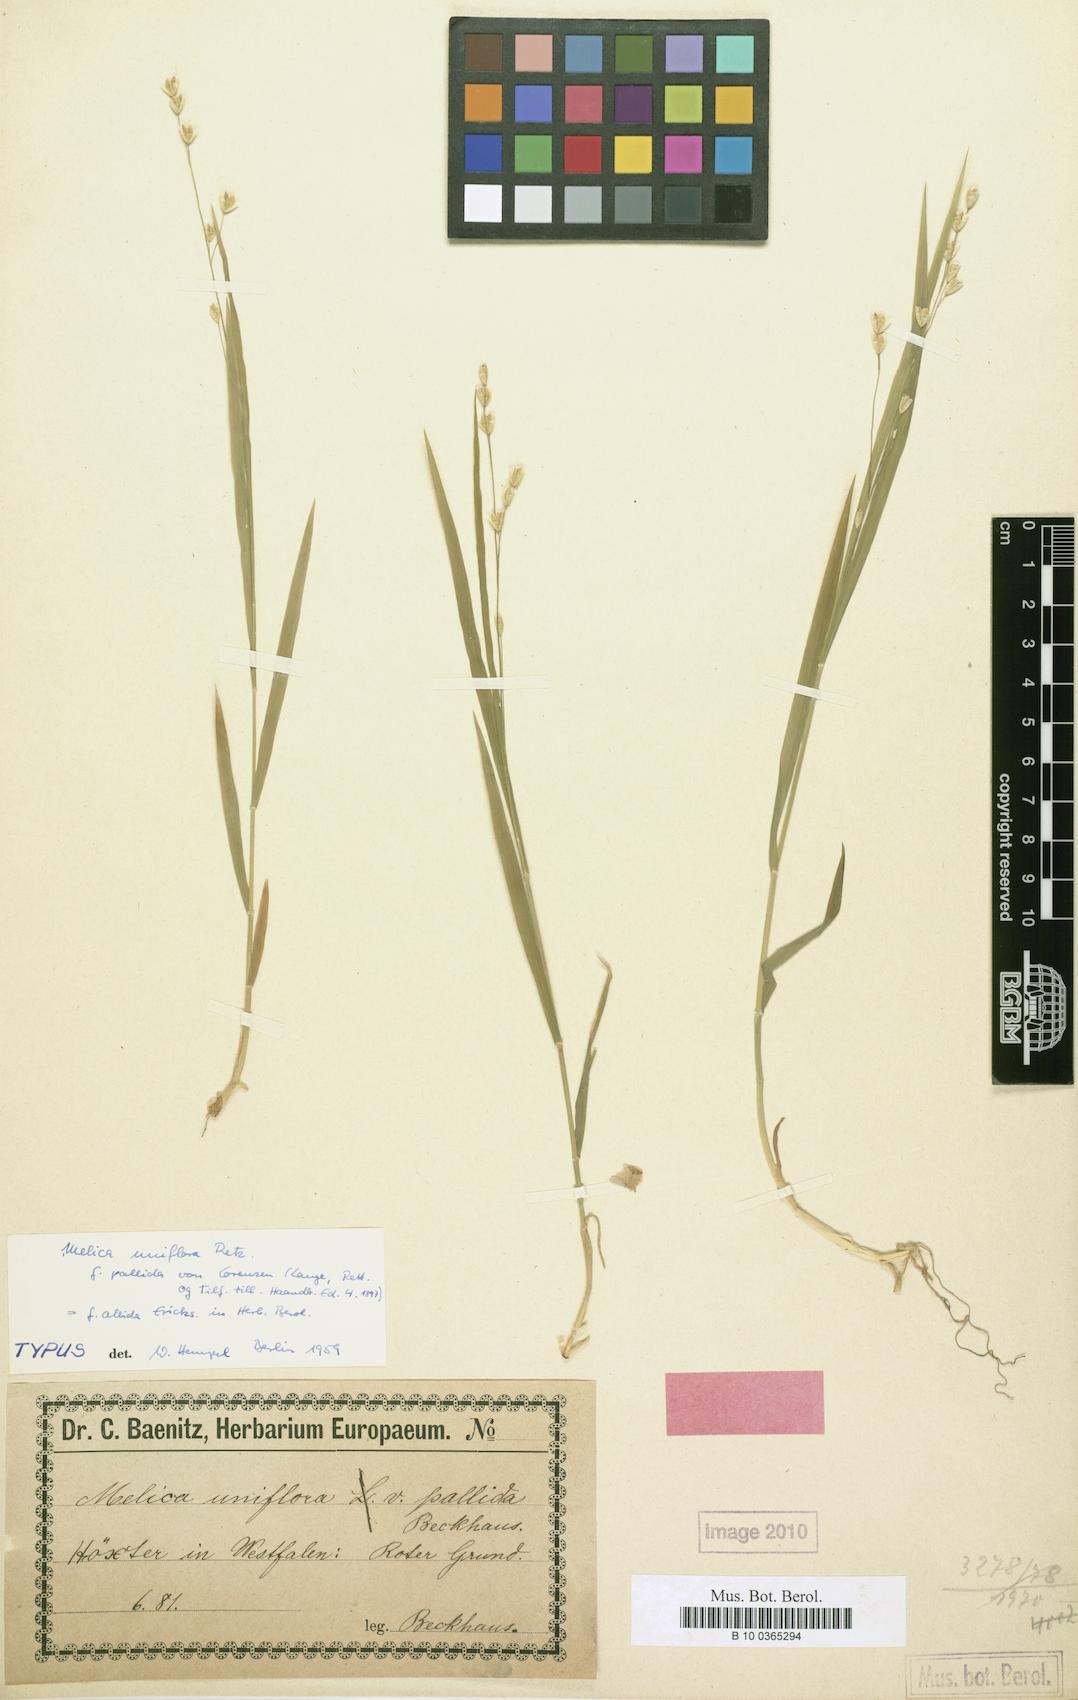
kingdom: Plantae
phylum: Tracheophyta
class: Liliopsida
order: Poales
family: Poaceae
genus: Melica
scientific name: Melica uniflora
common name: Wood melick
